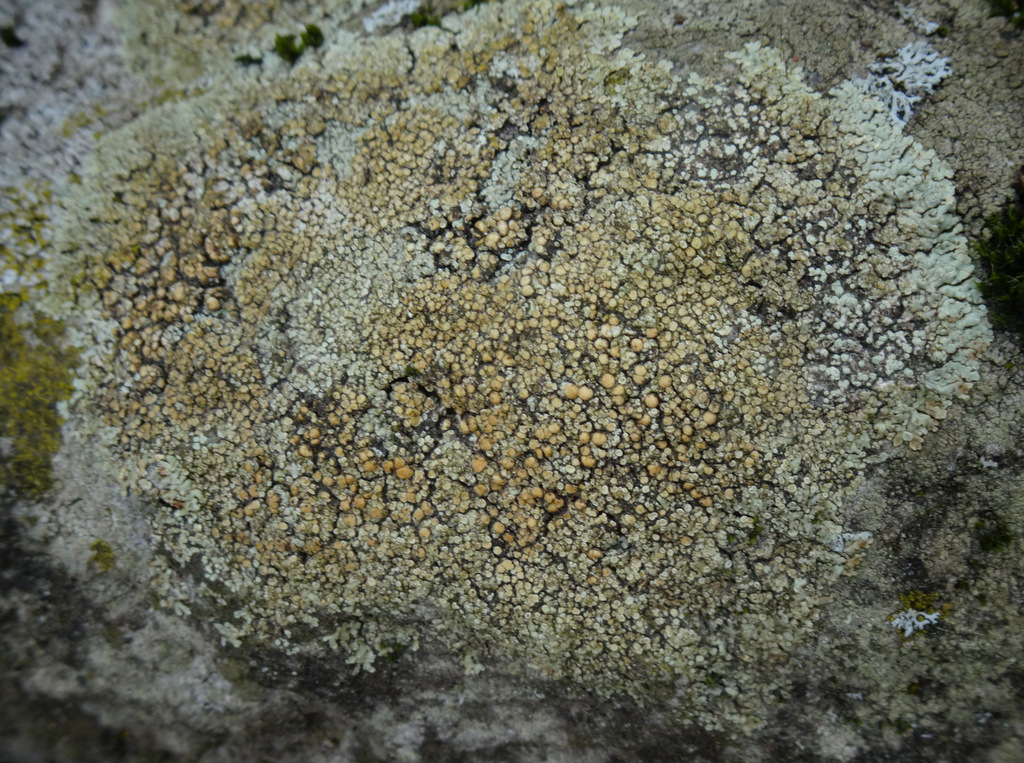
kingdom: Fungi
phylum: Ascomycota
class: Lecanoromycetes
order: Lecanorales
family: Lecanoraceae
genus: Protoparmeliopsis
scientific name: Protoparmeliopsis muralis
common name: randfliget kantskivelav
